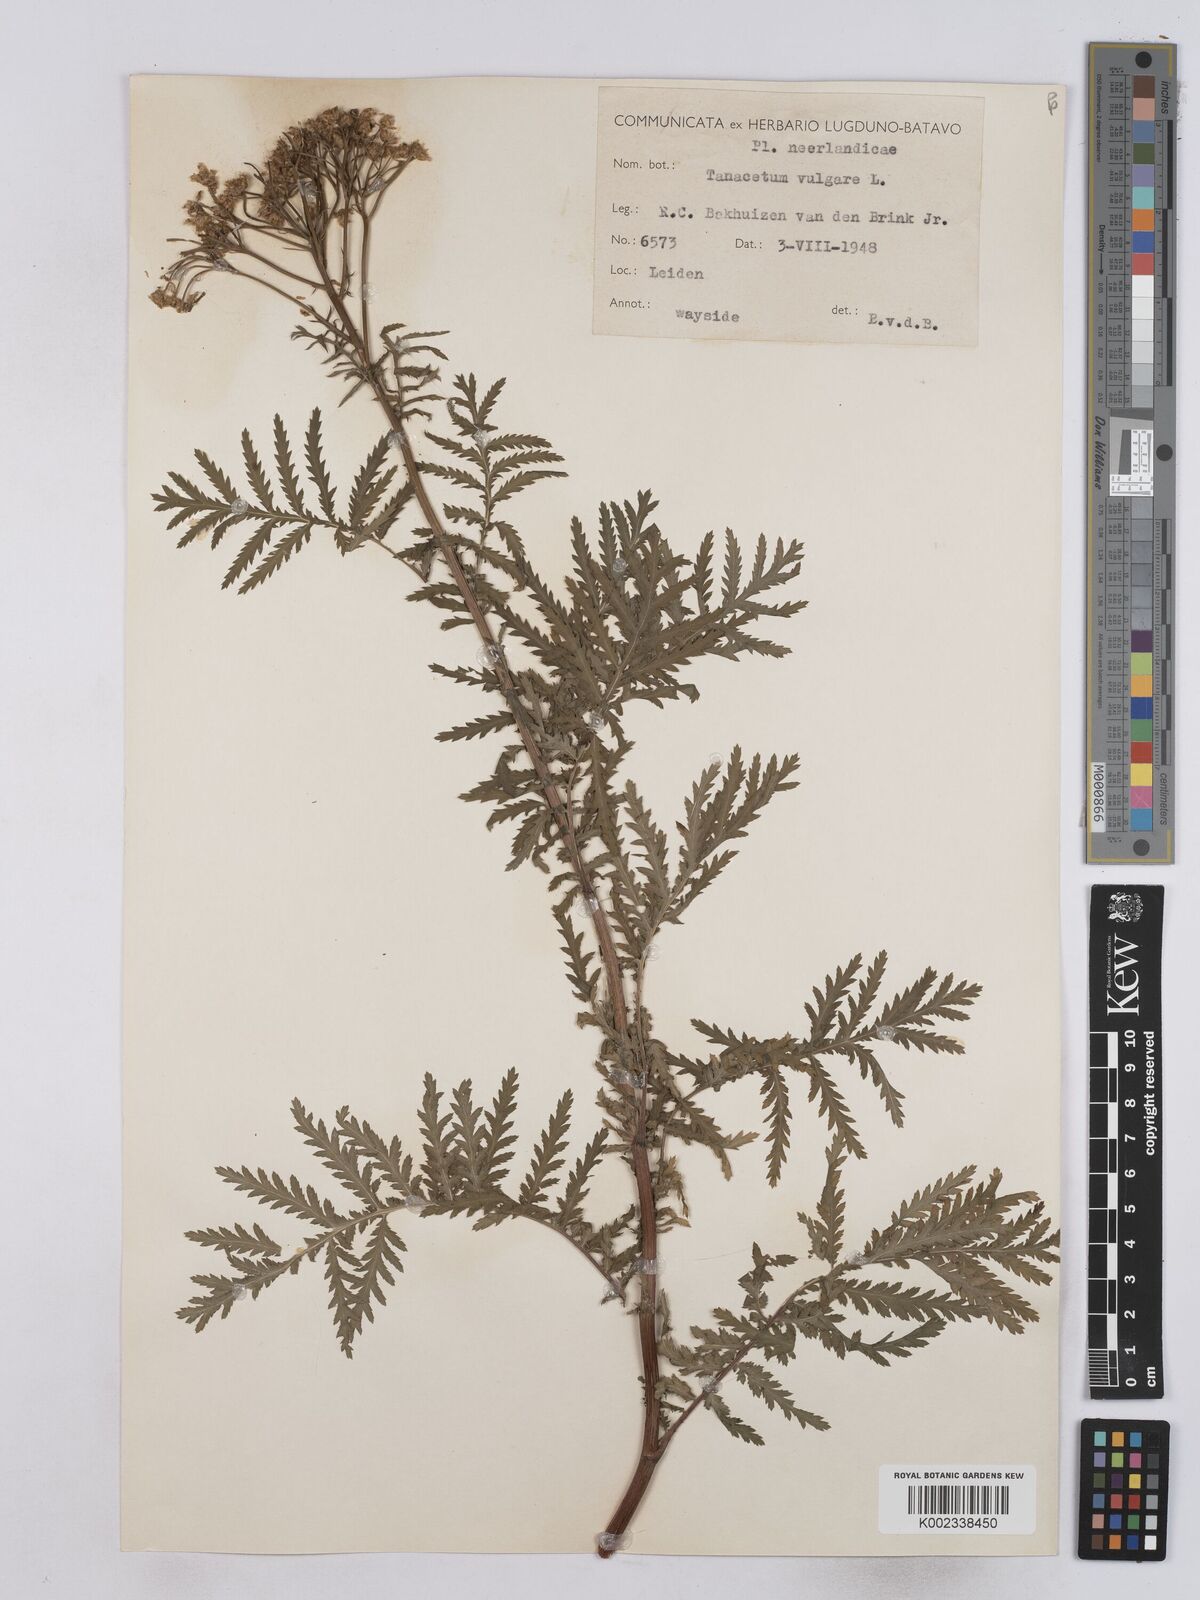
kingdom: Plantae
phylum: Tracheophyta
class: Magnoliopsida
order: Asterales
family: Asteraceae
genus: Tanacetum
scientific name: Tanacetum vulgare
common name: Common tansy
